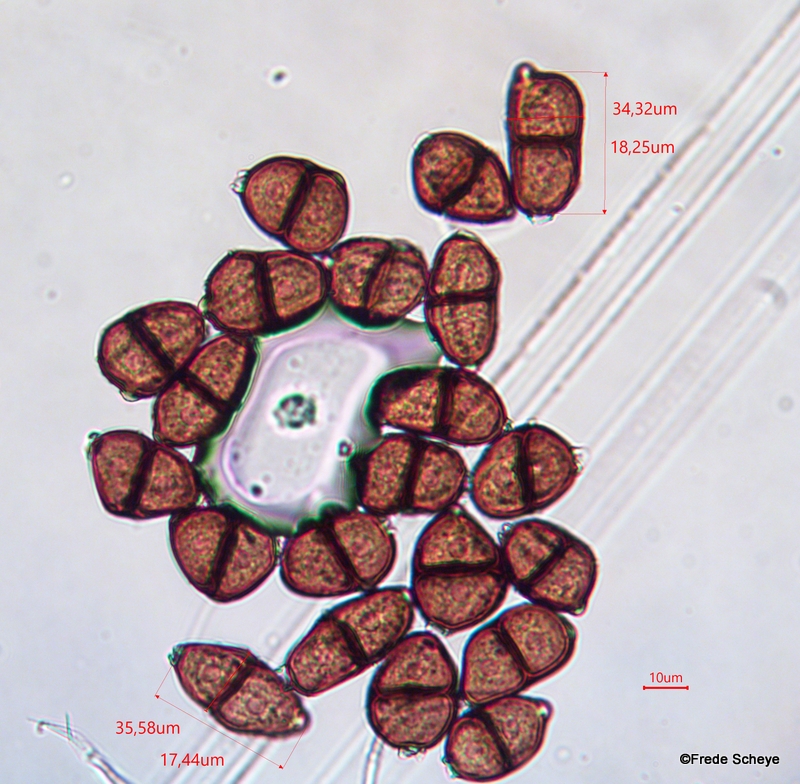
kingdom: Fungi
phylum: Basidiomycota
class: Pucciniomycetes
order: Pucciniales
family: Pucciniaceae
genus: Puccinia
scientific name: Puccinia
